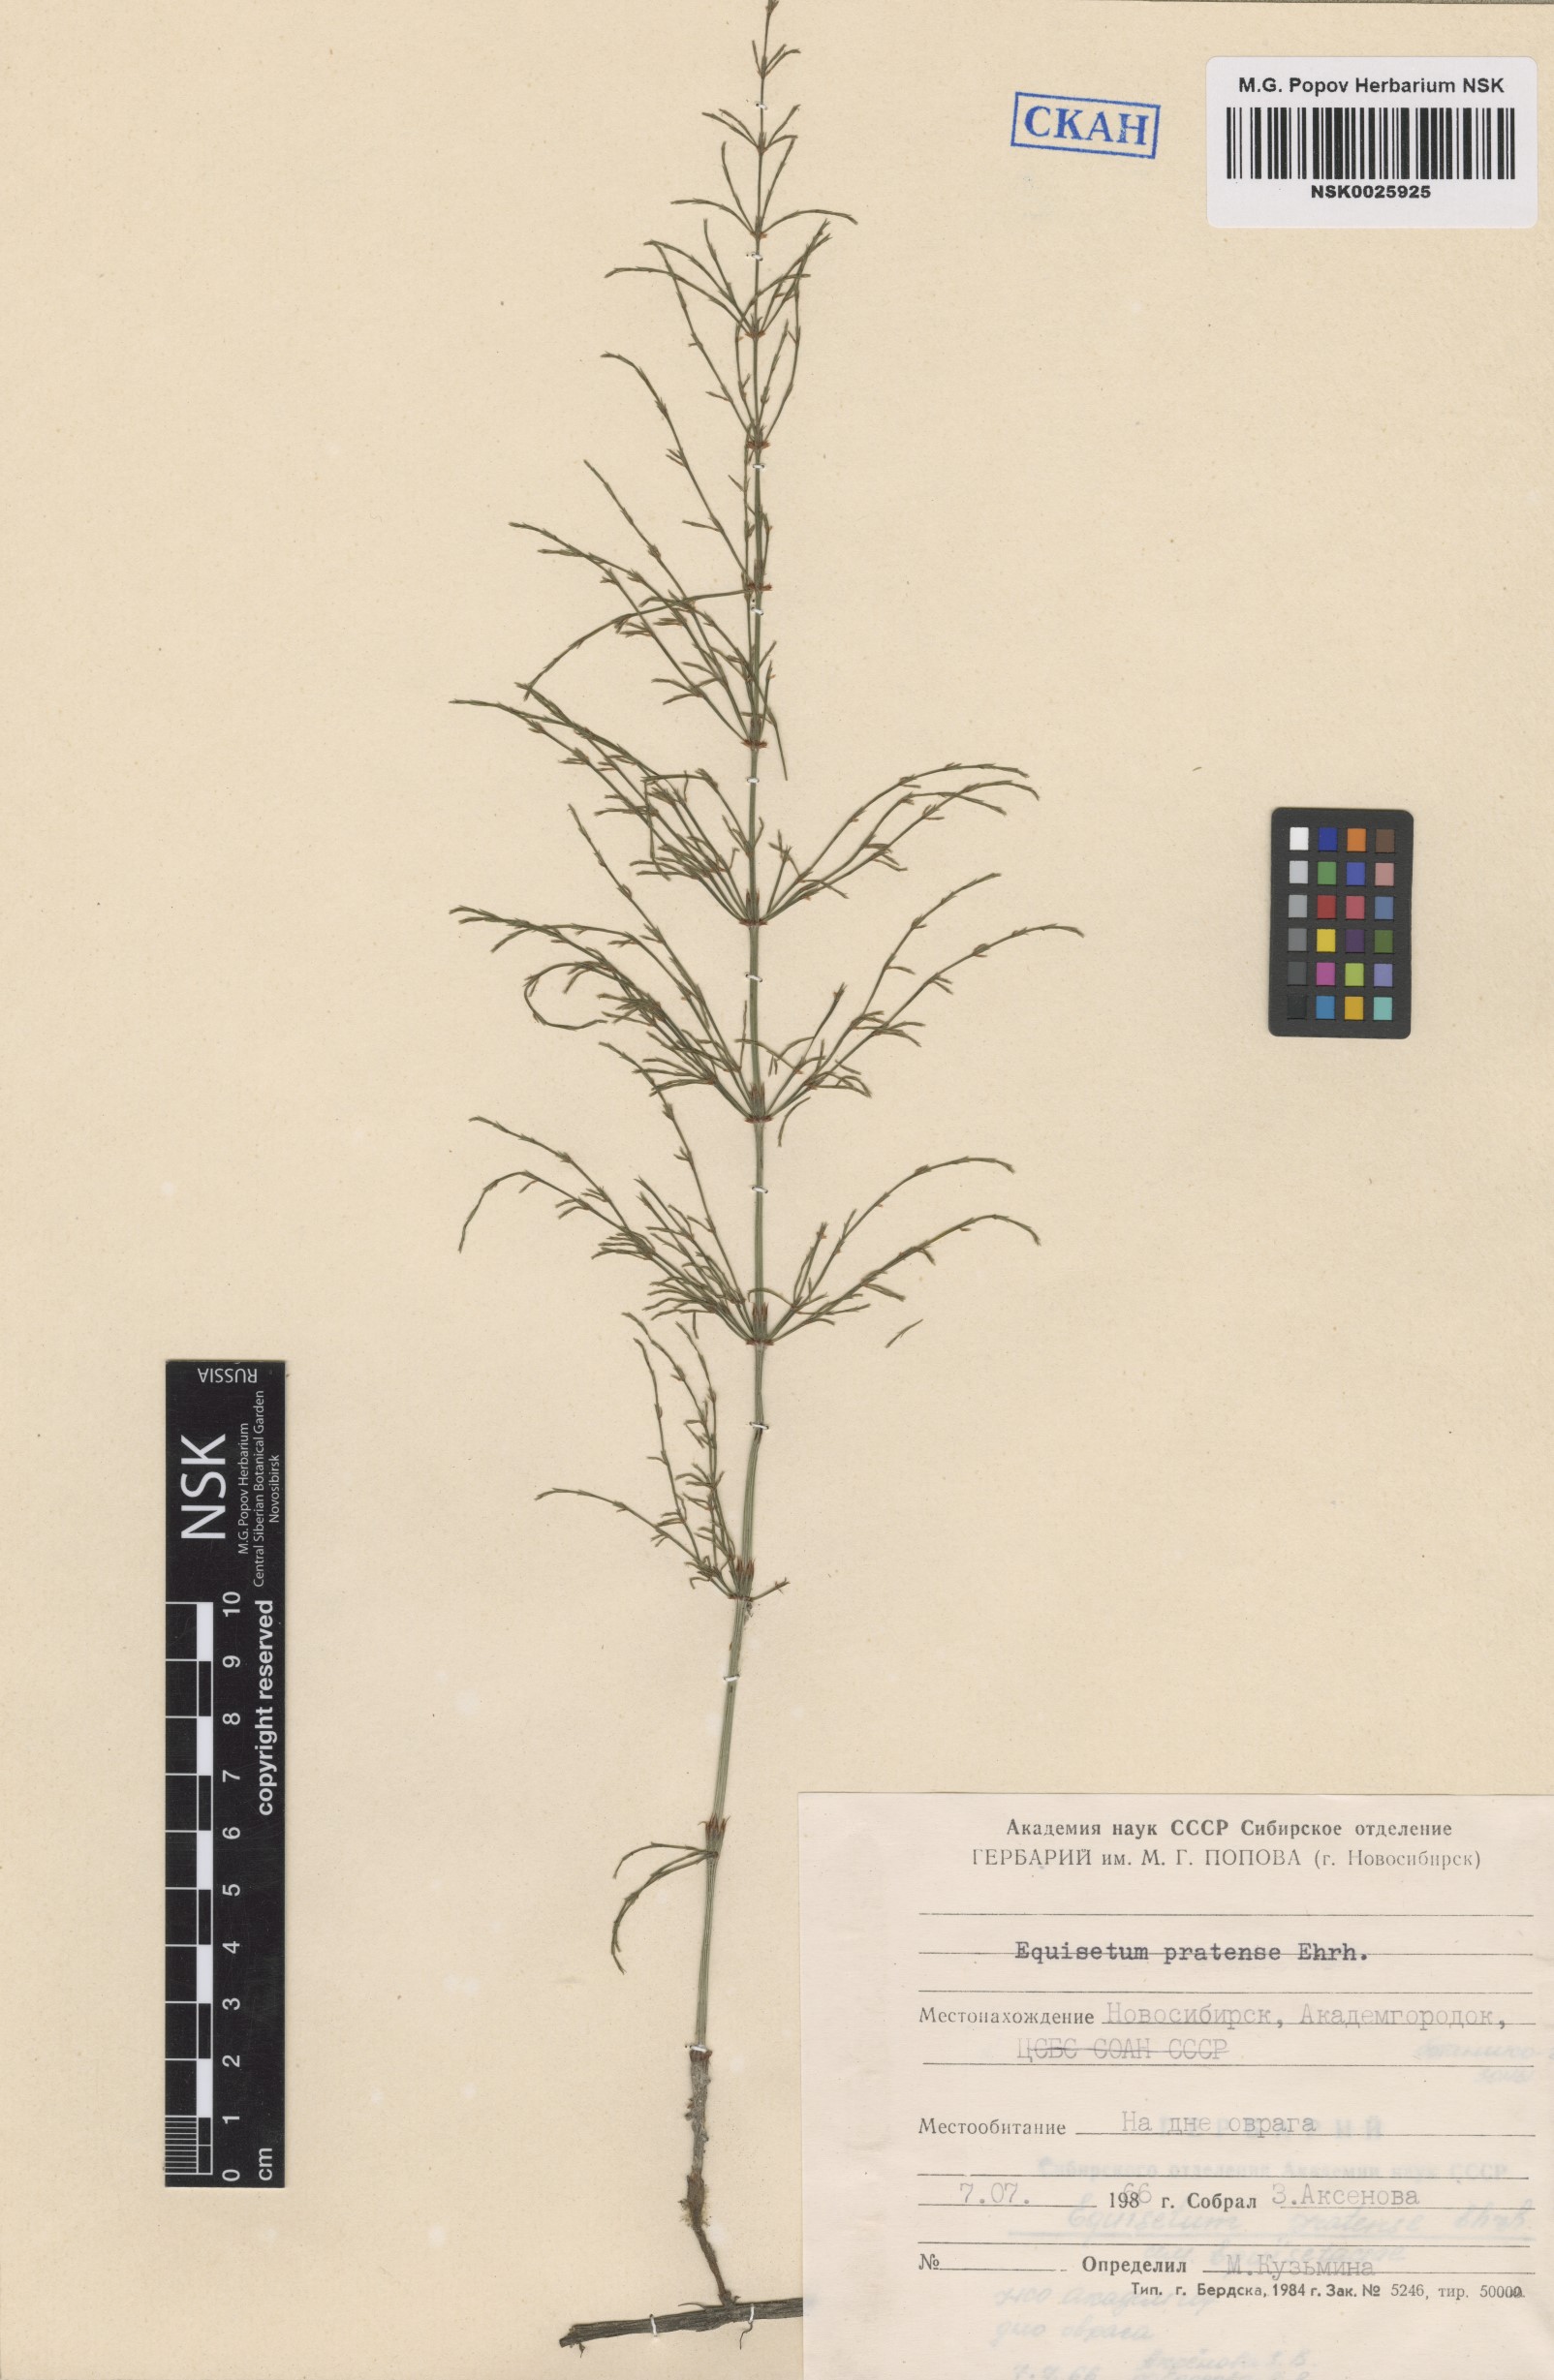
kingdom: Plantae
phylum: Tracheophyta
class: Polypodiopsida
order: Equisetales
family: Equisetaceae
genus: Equisetum
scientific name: Equisetum pratense
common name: Meadow horsetail
